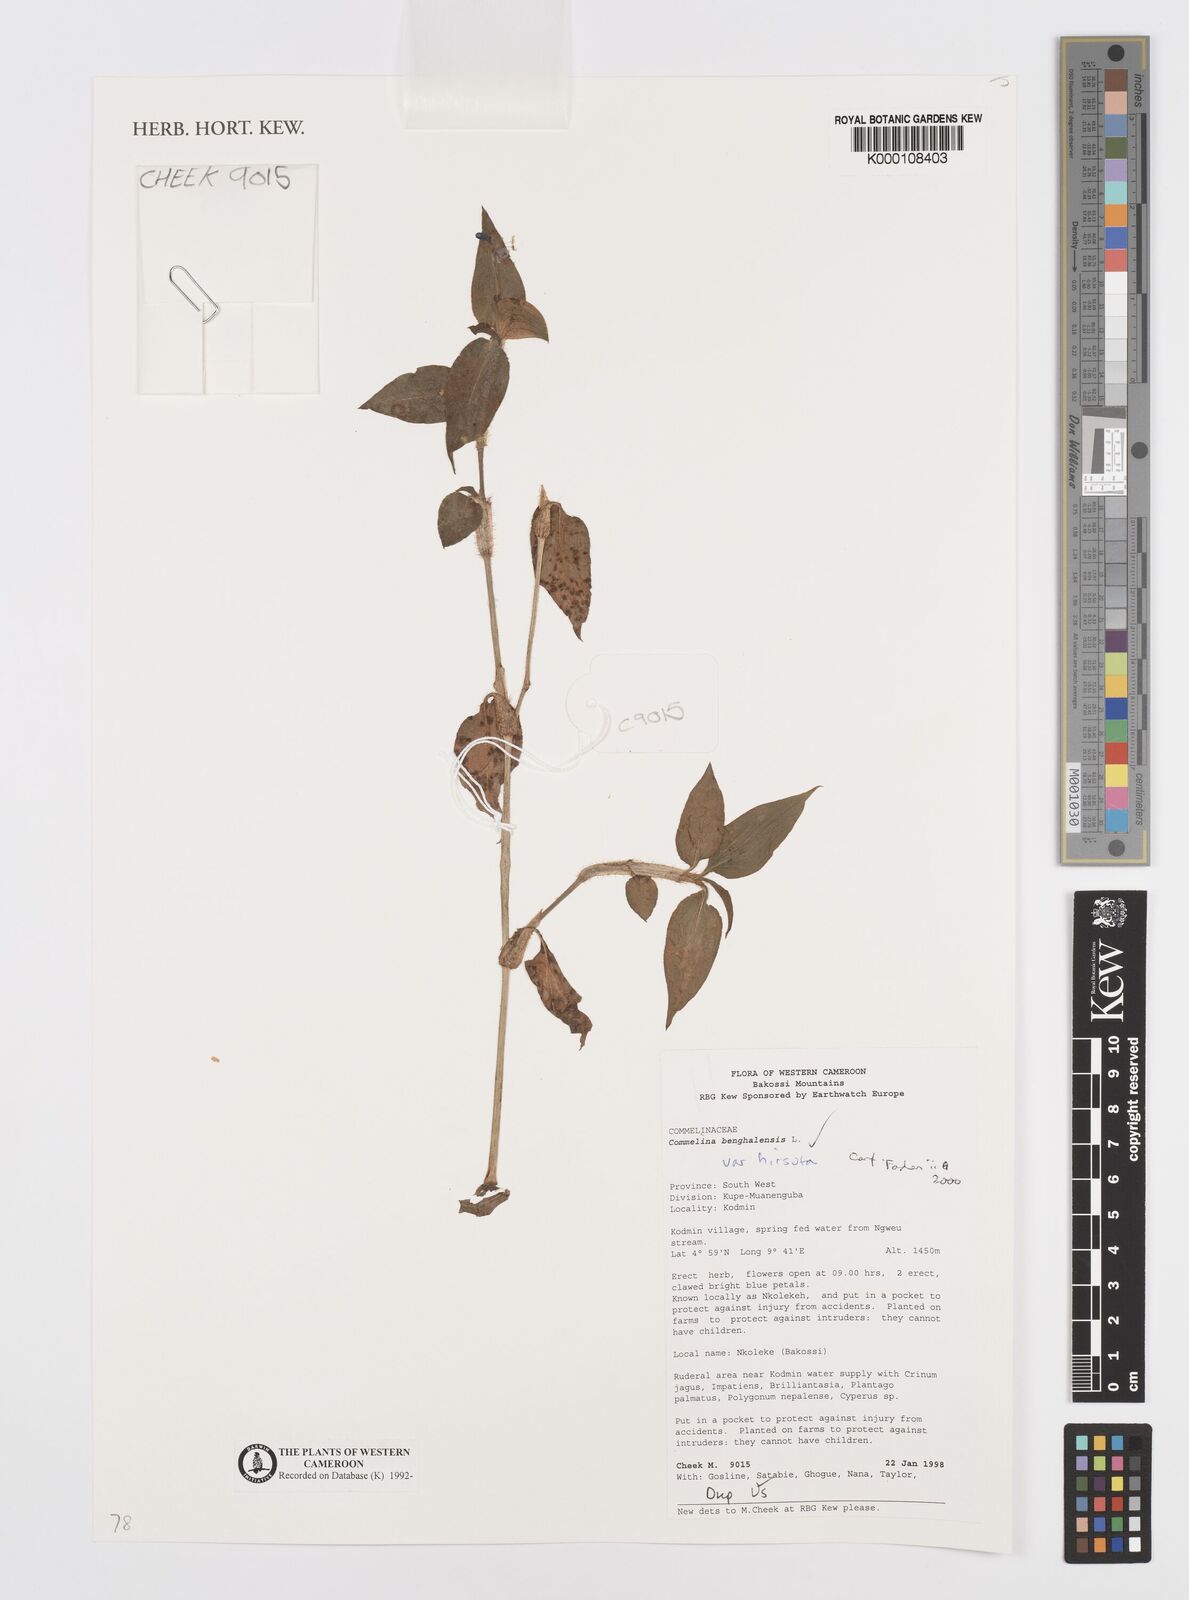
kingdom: Plantae
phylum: Tracheophyta
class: Liliopsida
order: Commelinales
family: Commelinaceae
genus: Commelina
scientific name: Commelina benghalensis
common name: Jio
